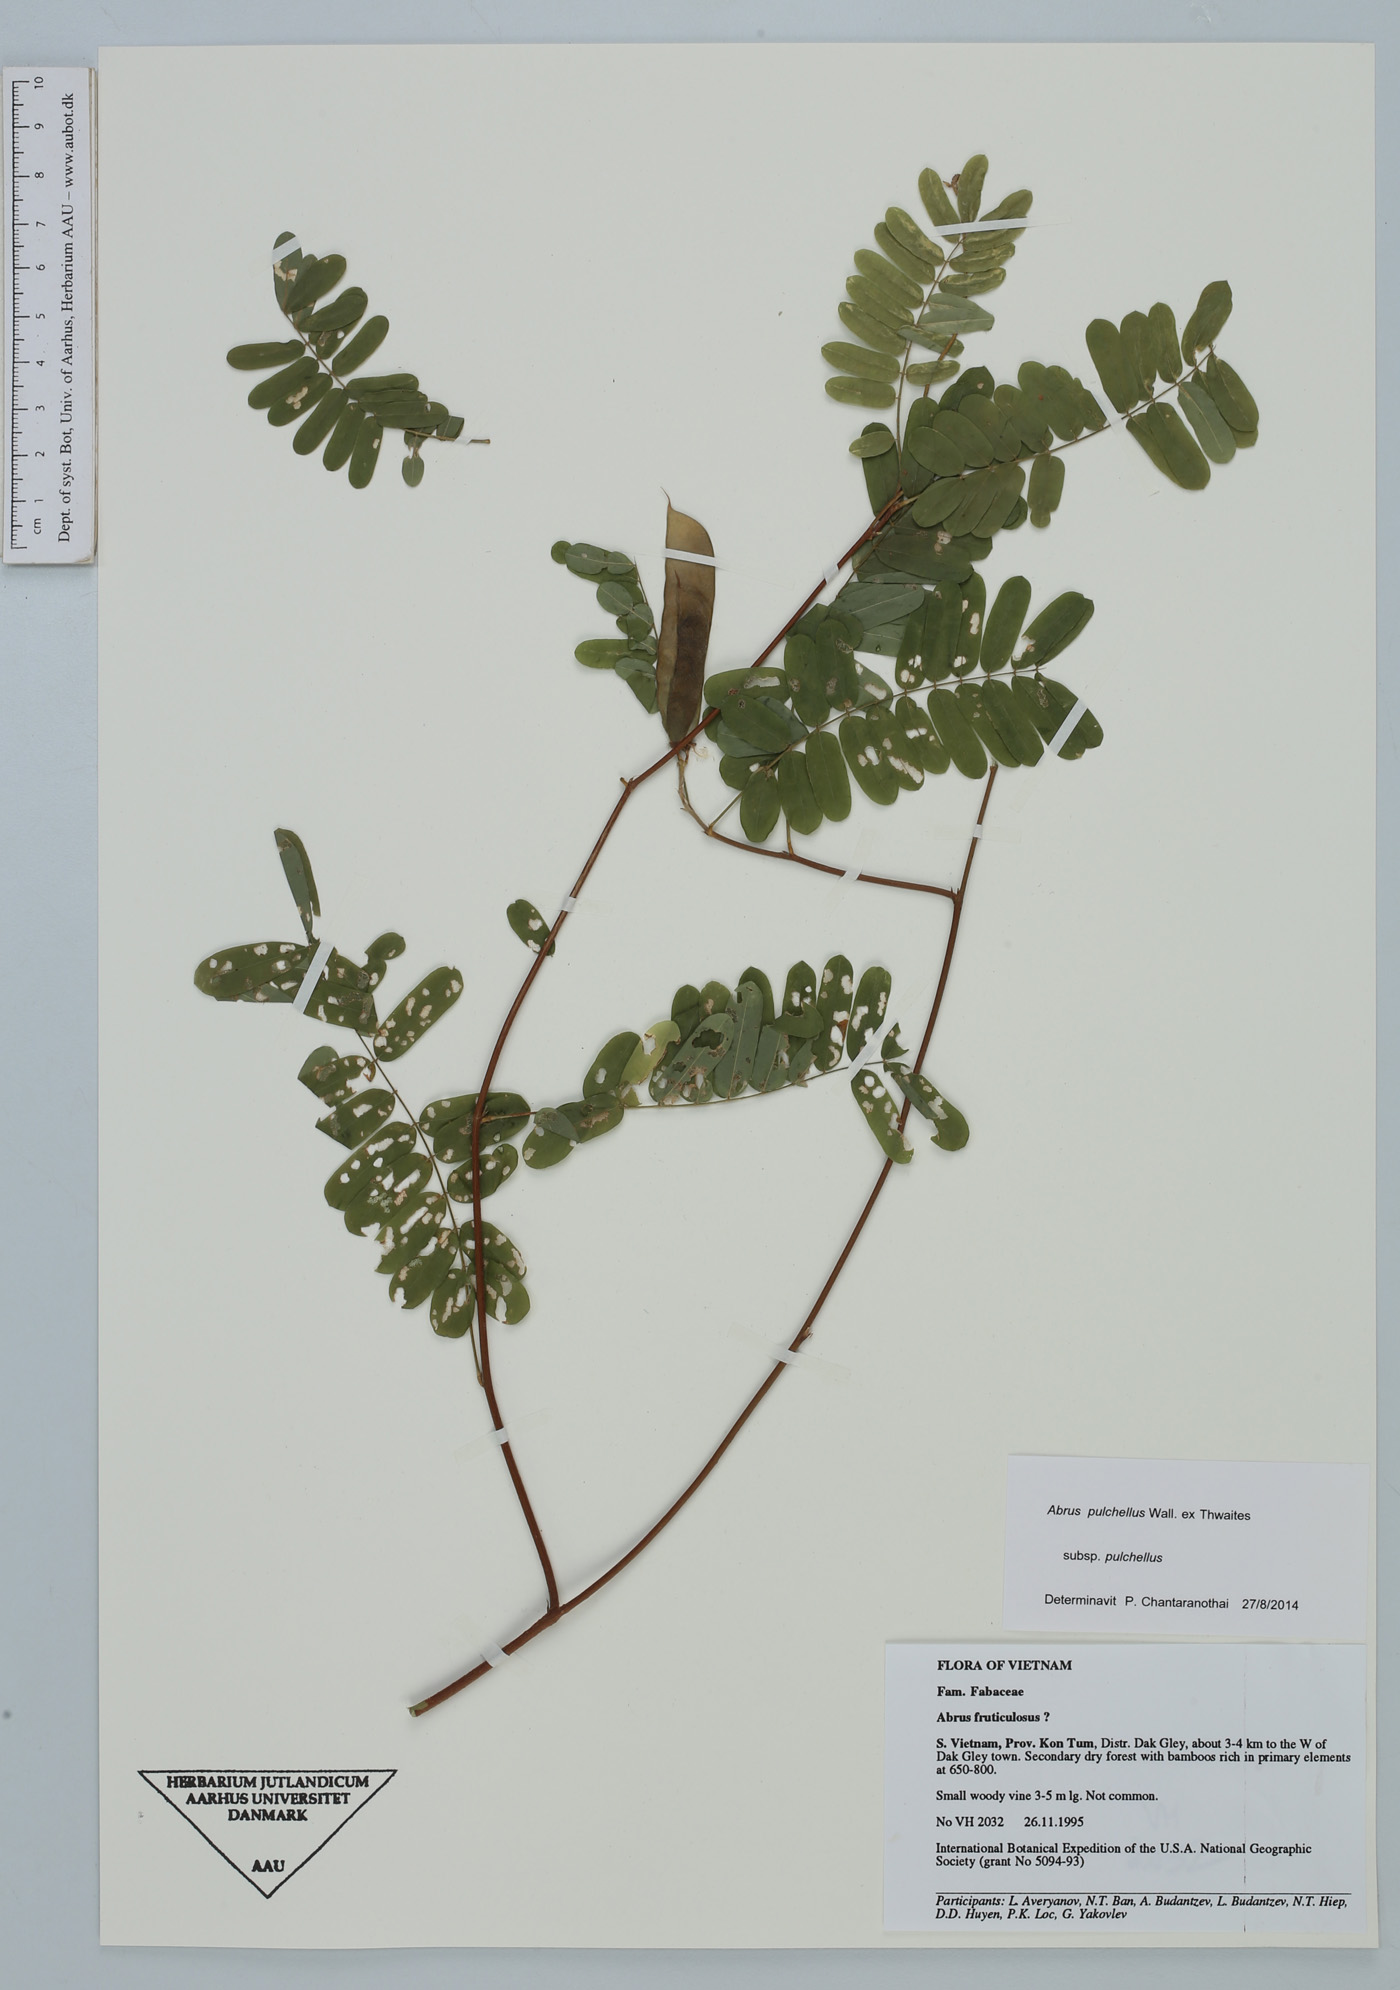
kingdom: Plantae
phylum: Tracheophyta
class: Magnoliopsida
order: Fabales
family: Fabaceae
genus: Abrus
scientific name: Abrus fruticulosus
